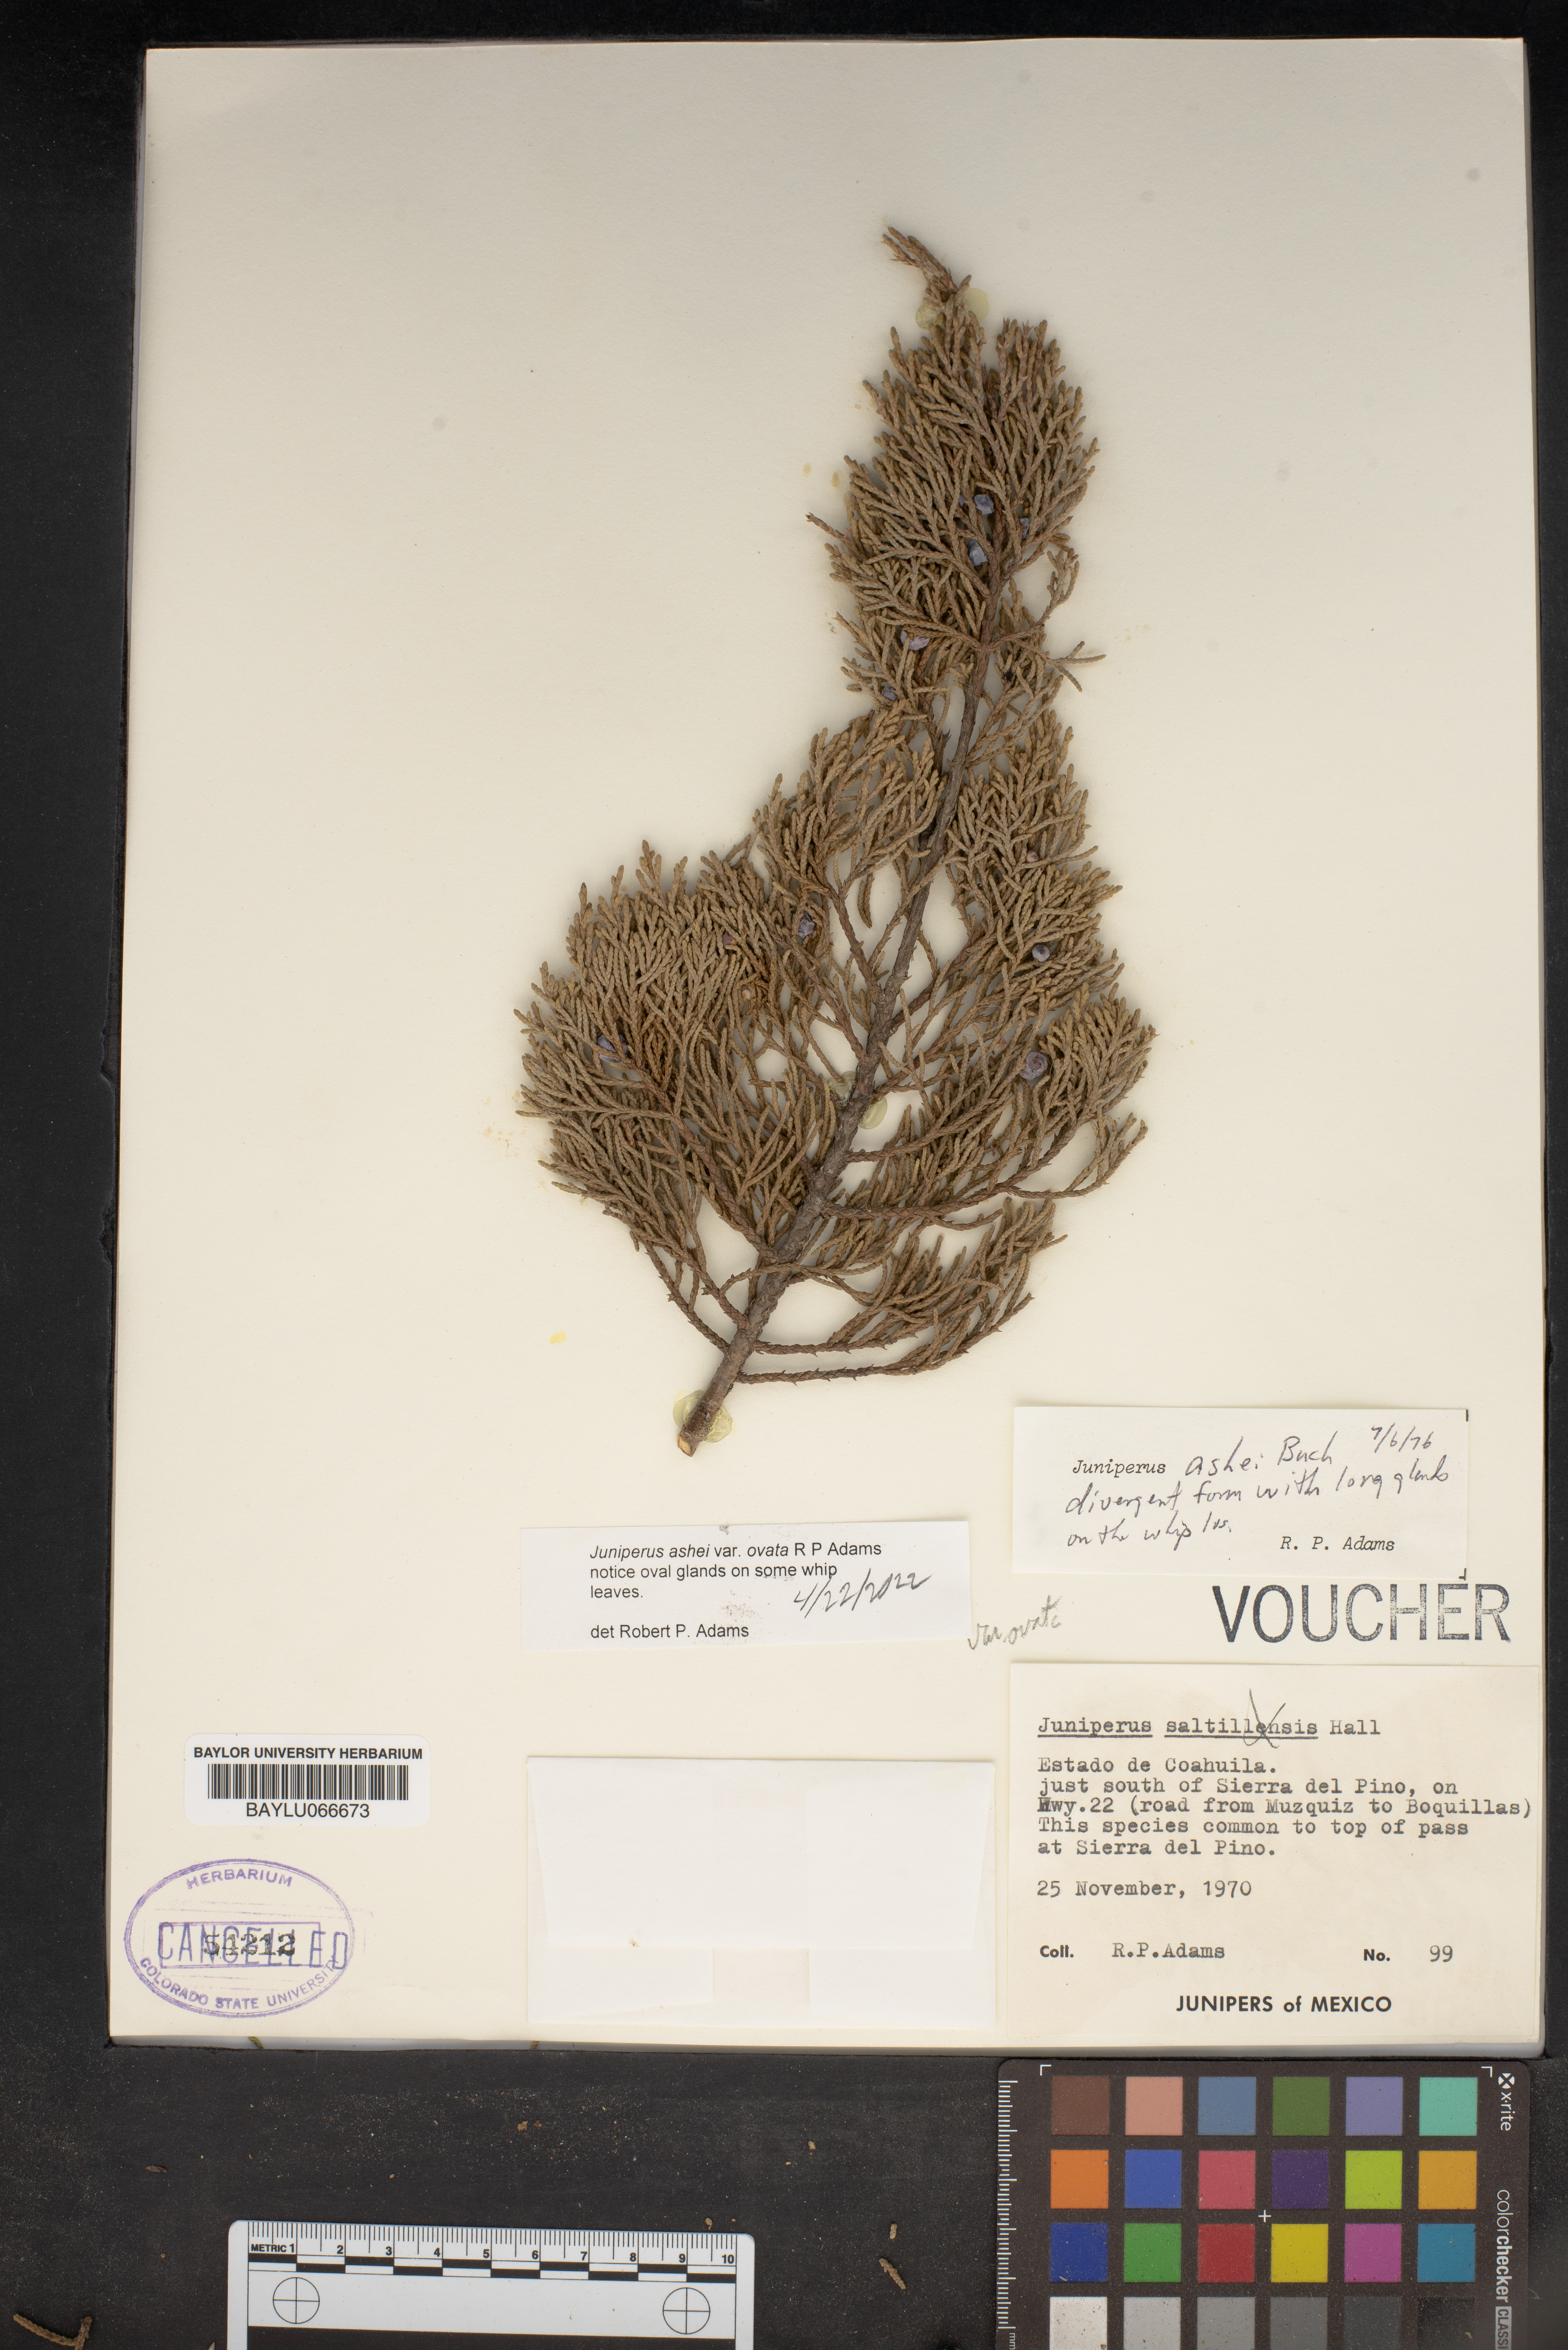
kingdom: Plantae
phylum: Tracheophyta
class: Pinopsida
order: Pinales
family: Cupressaceae
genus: Juniperus
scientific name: Juniperus saltillensis
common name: Saltillo juniper
